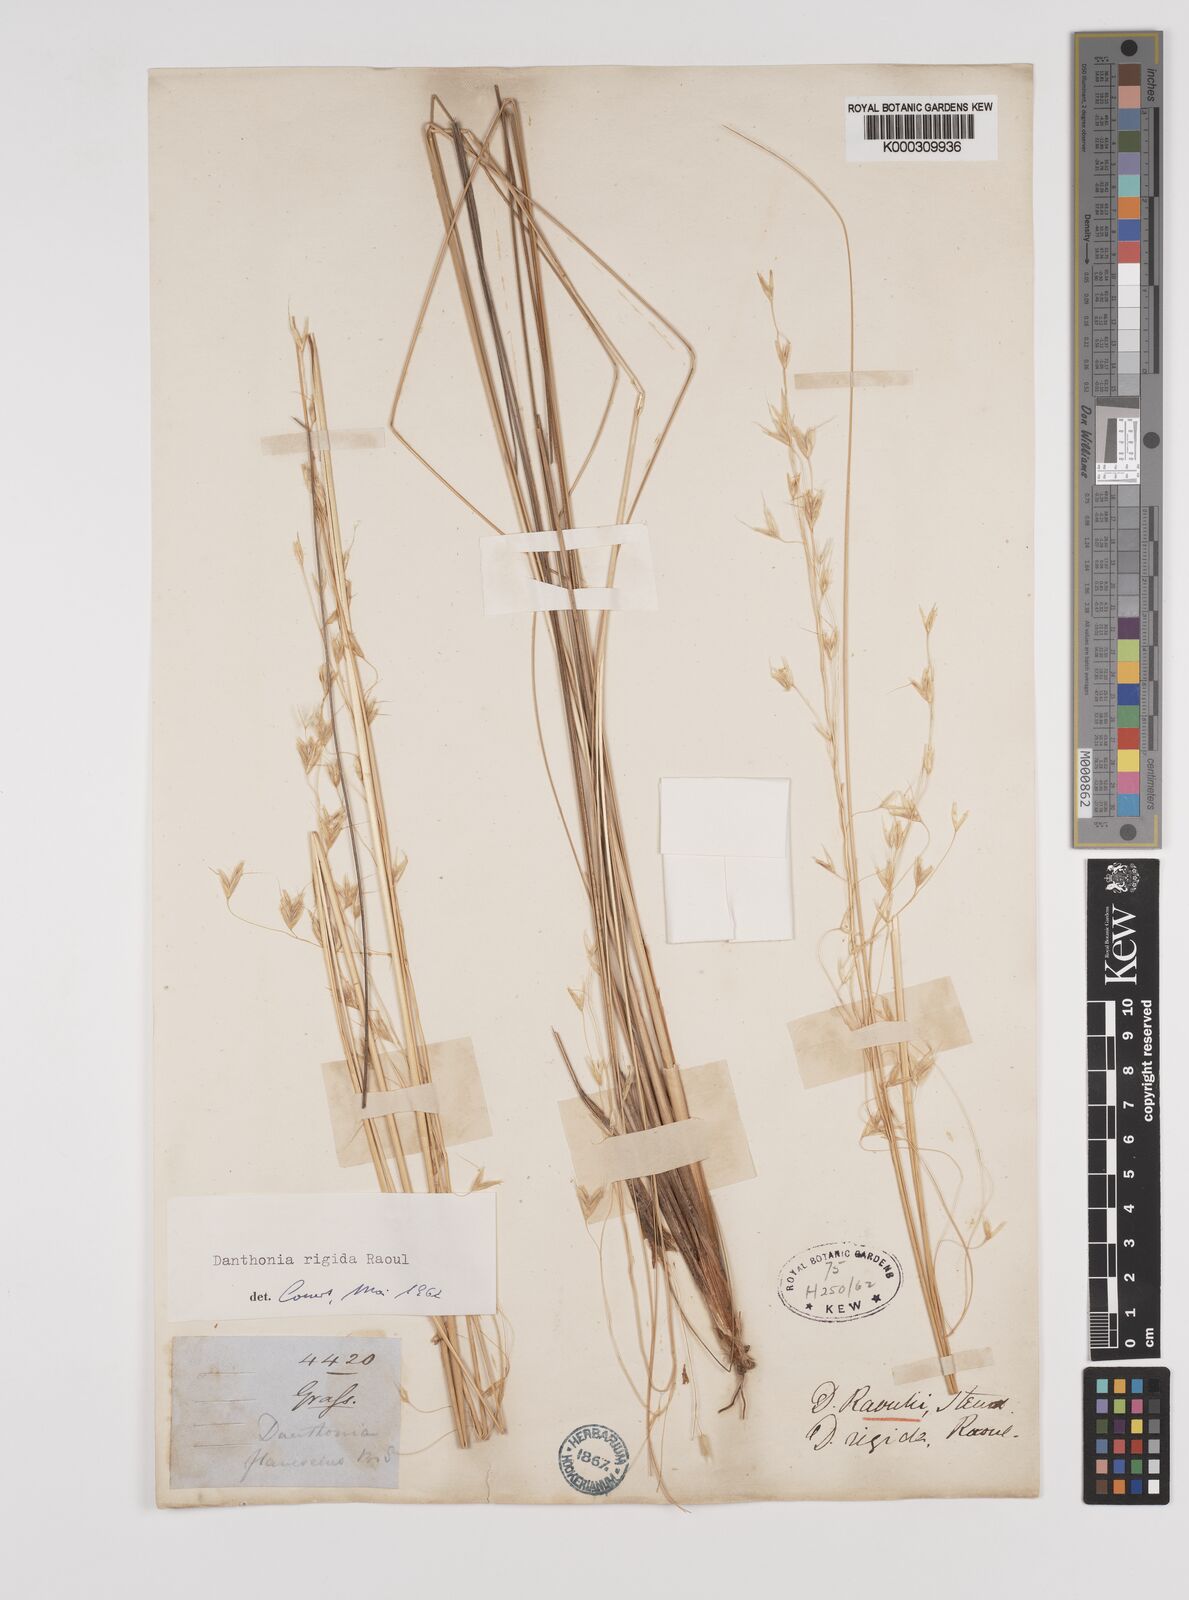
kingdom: Plantae
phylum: Tracheophyta
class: Liliopsida
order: Poales
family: Poaceae
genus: Chionochloa
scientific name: Chionochloa rigida
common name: Narrow leaved snow tussock
